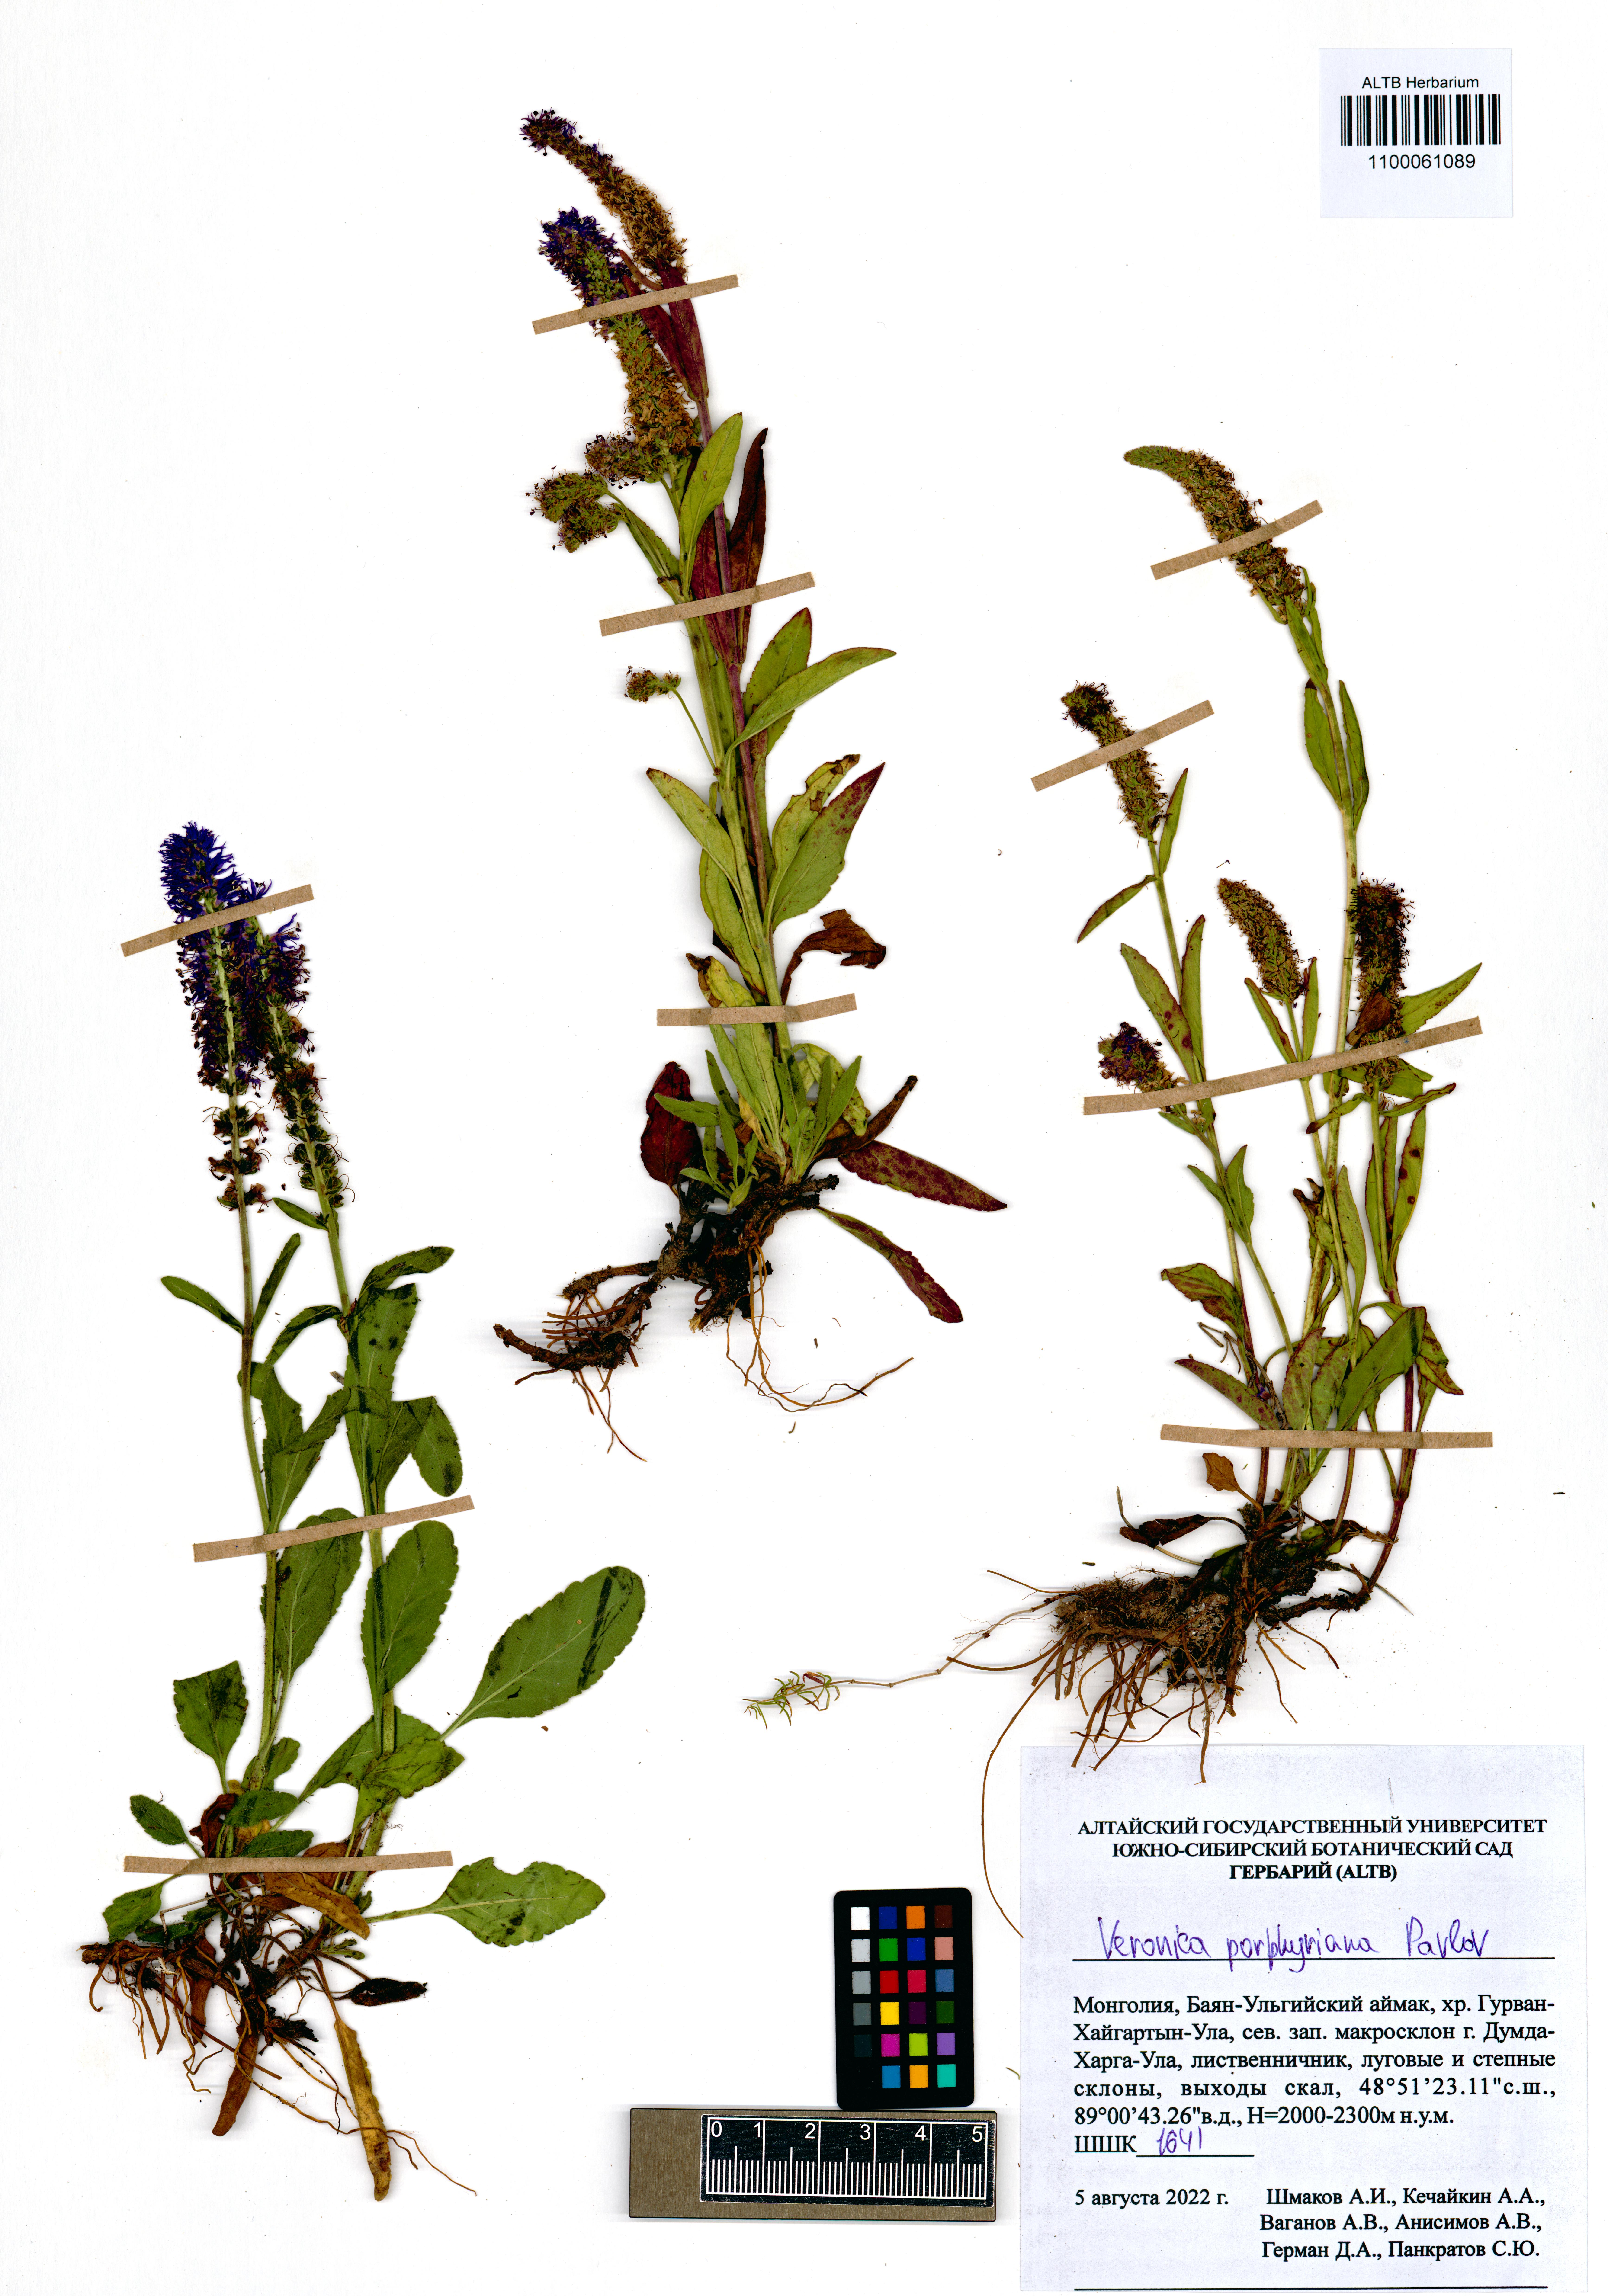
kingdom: Plantae
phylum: Tracheophyta
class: Magnoliopsida
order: Lamiales
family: Plantaginaceae
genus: Veronica
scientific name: Veronica porphyriana
